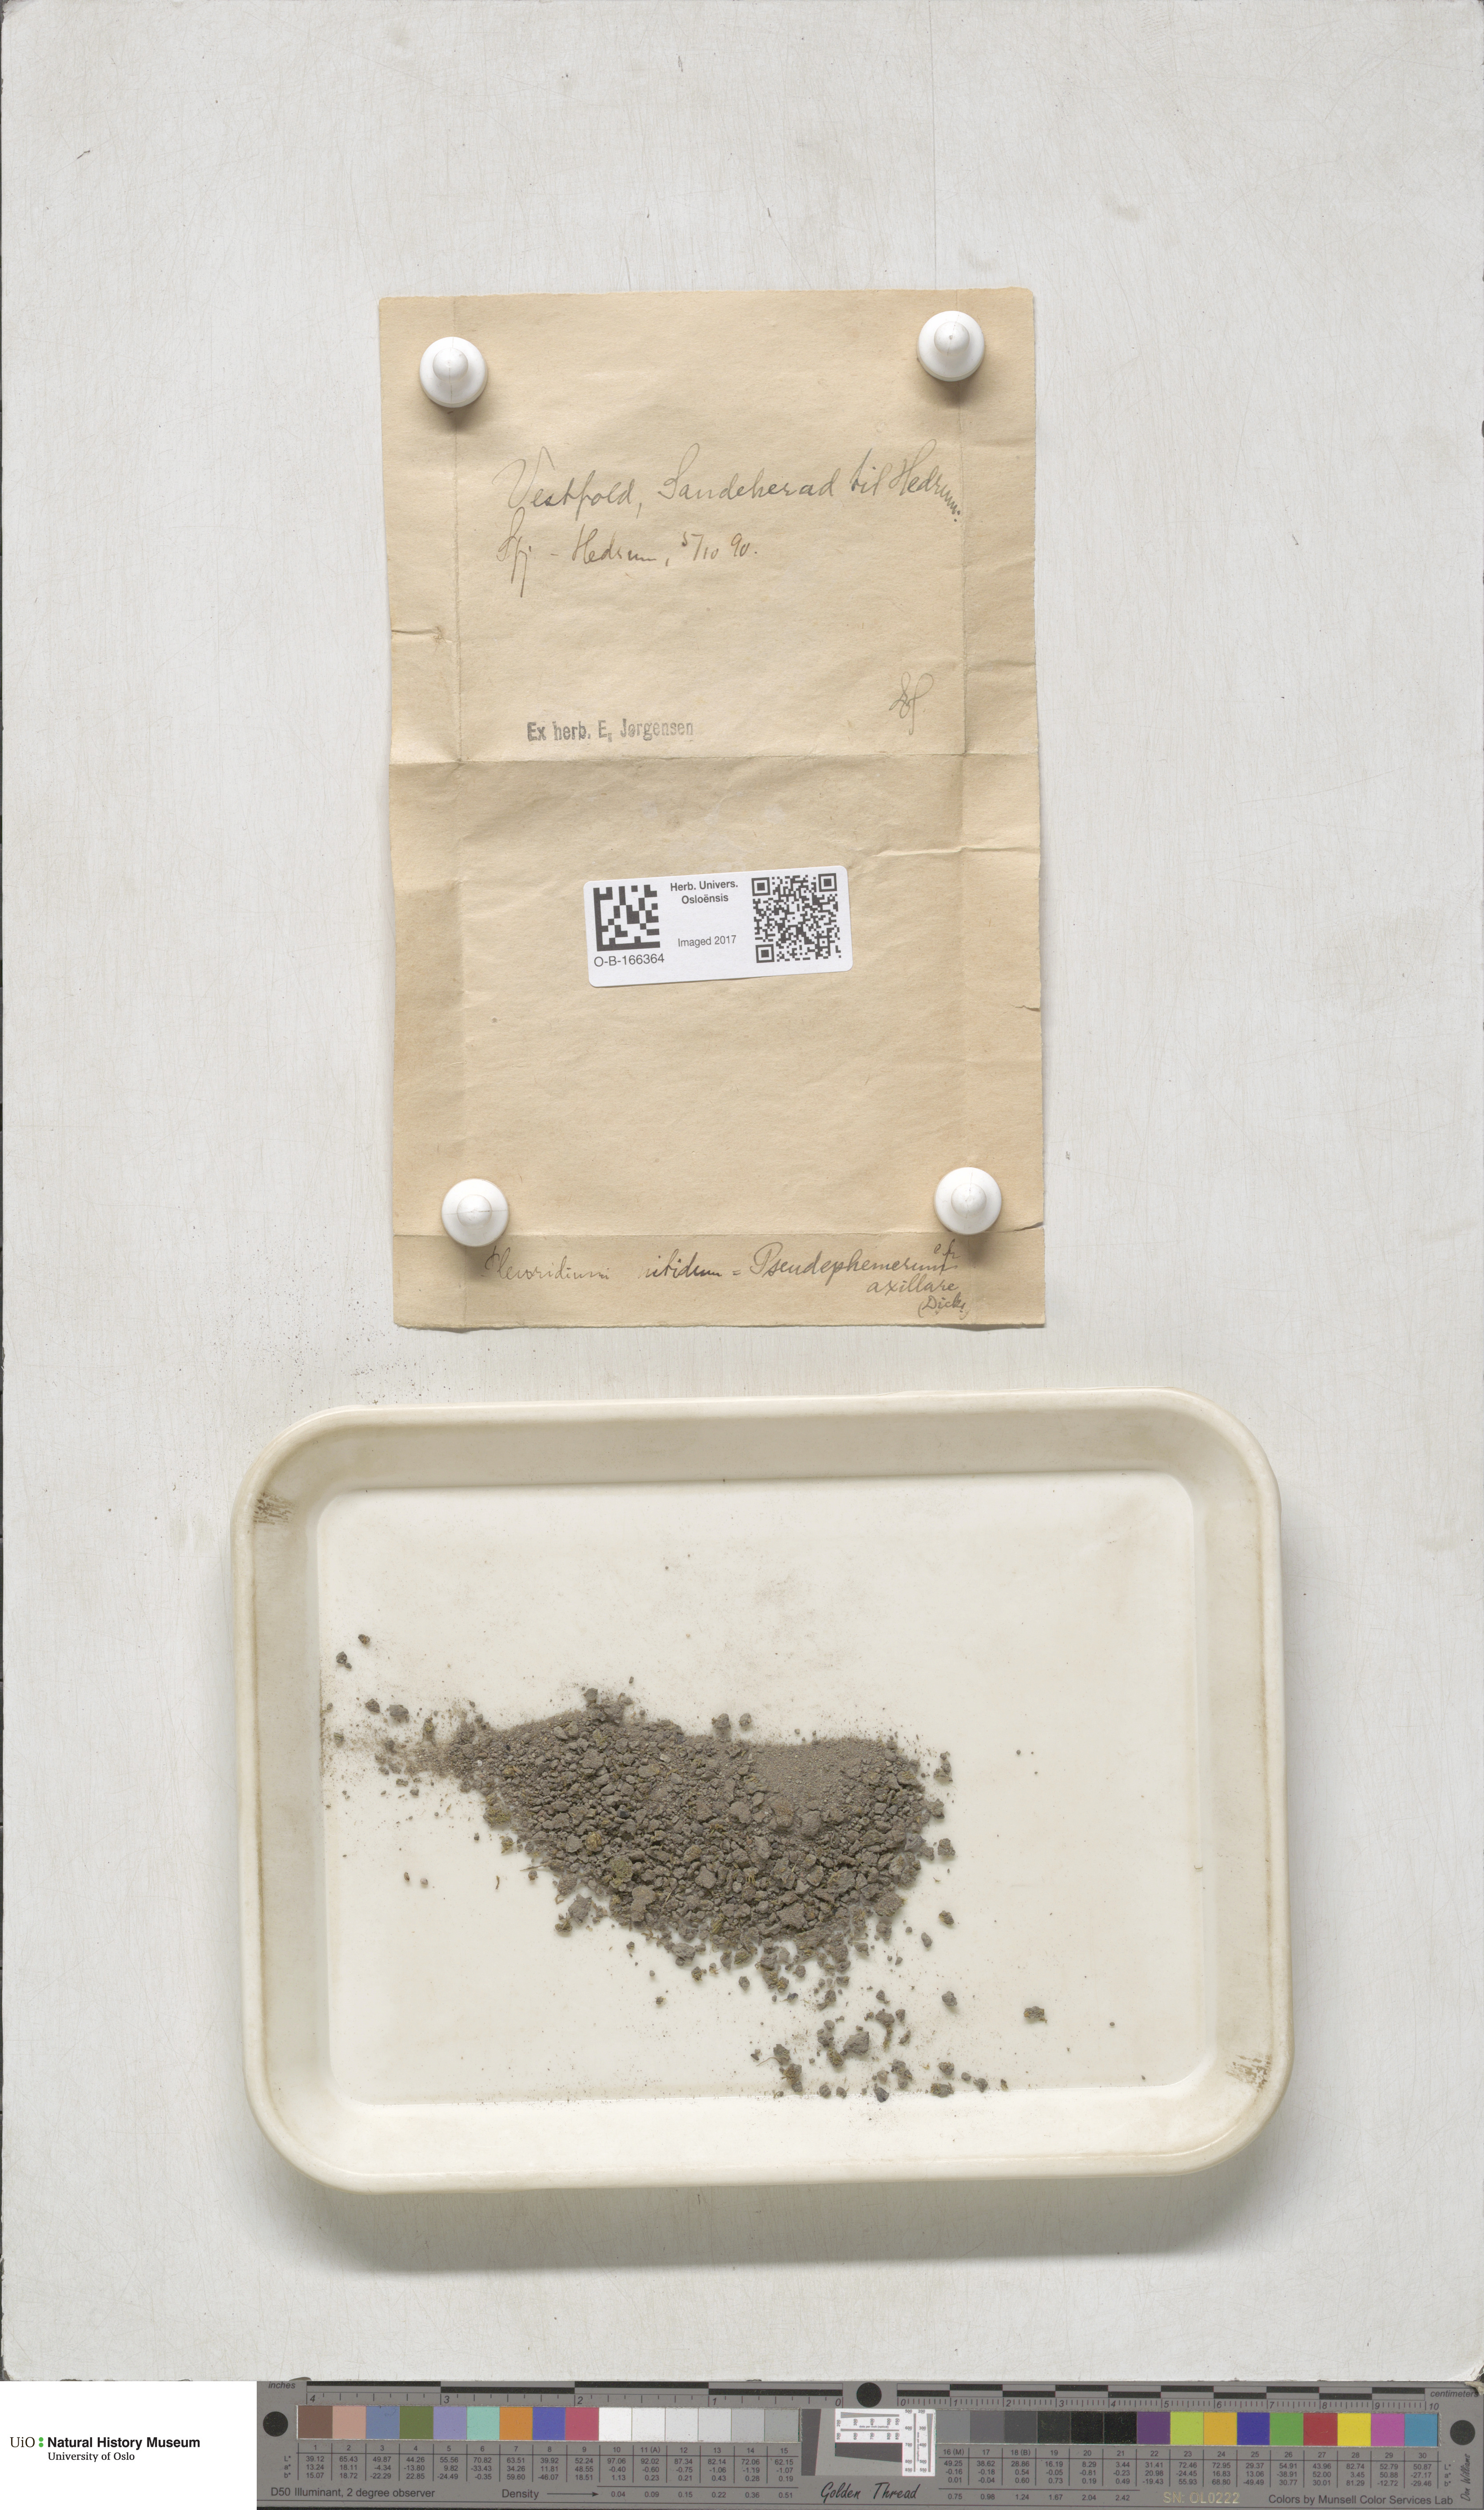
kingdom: Plantae
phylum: Bryophyta
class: Bryopsida
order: Dicranales
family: Ditrichaceae
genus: Pseudephemerum
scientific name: Pseudephemerum nitidum
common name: Delicate earth-moss
